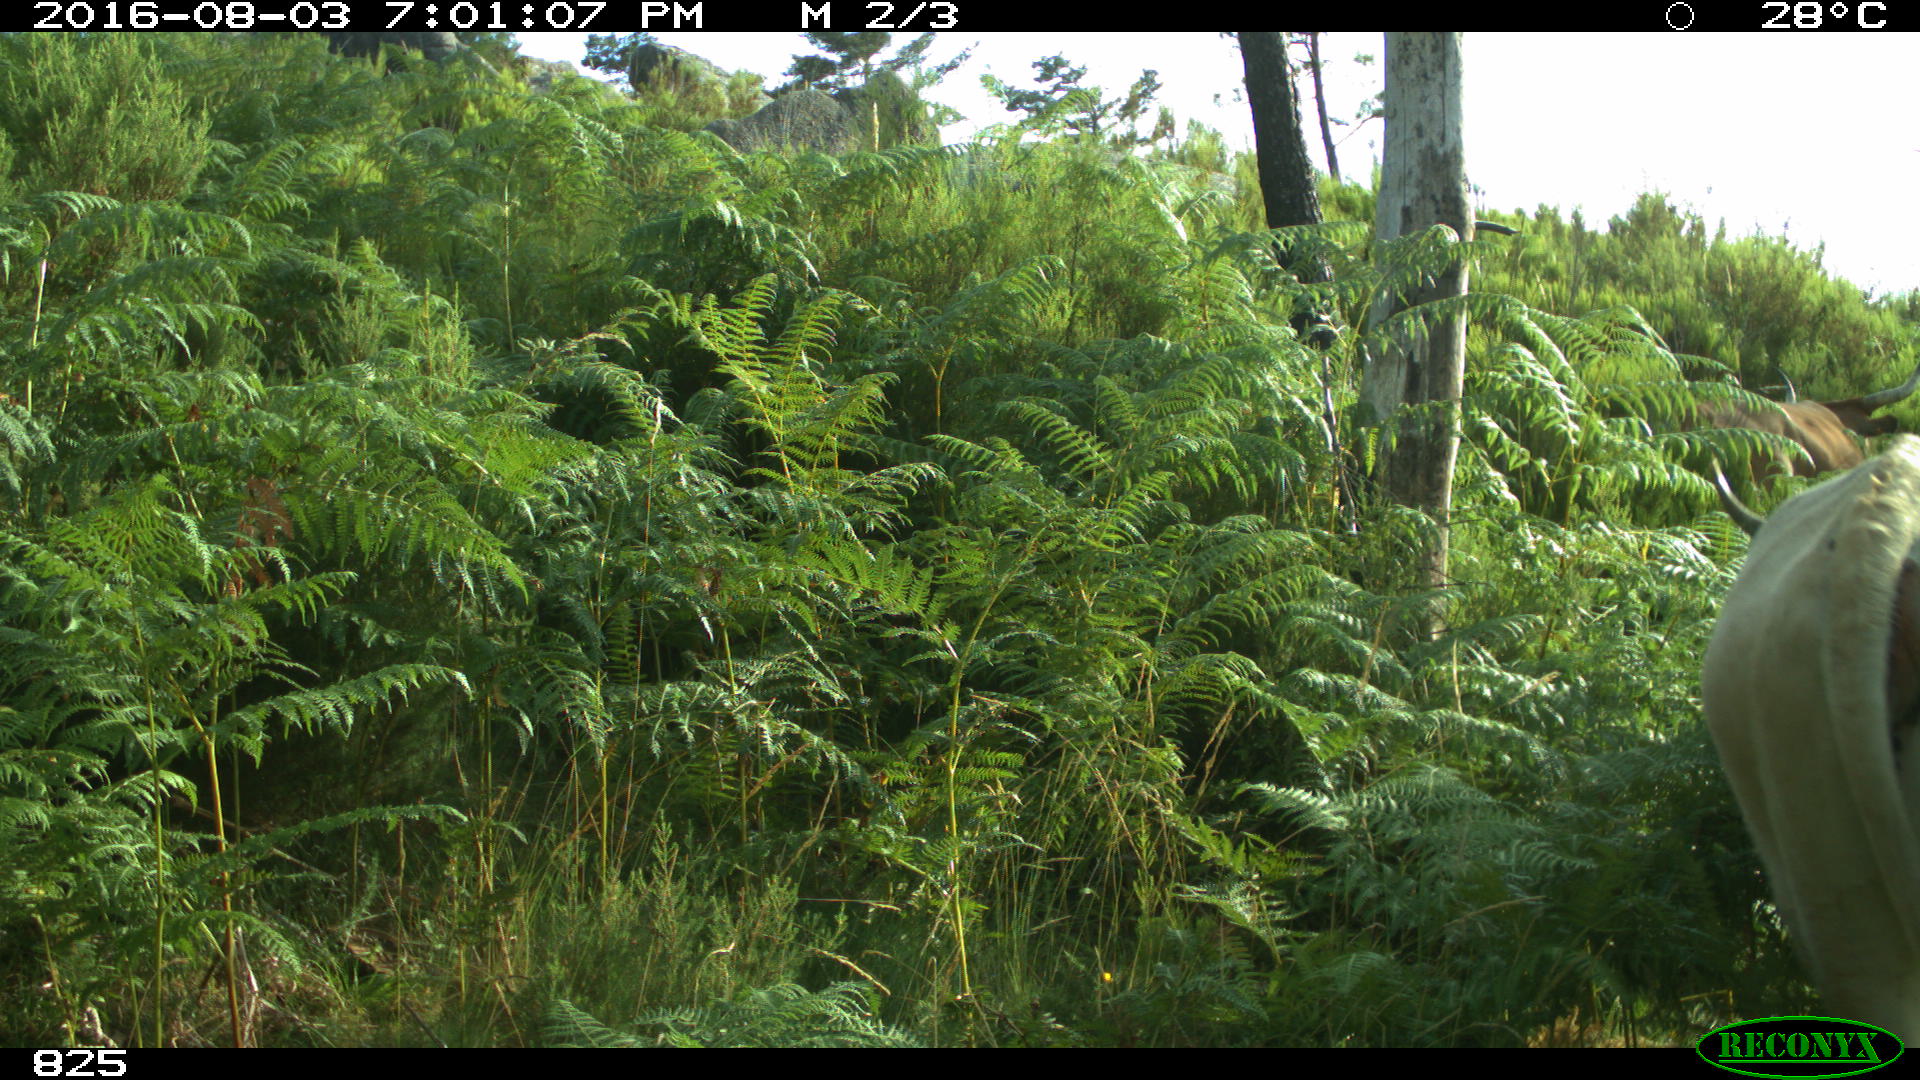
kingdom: Animalia
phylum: Chordata
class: Mammalia
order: Artiodactyla
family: Bovidae
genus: Bos
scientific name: Bos taurus
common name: Domesticated cattle
